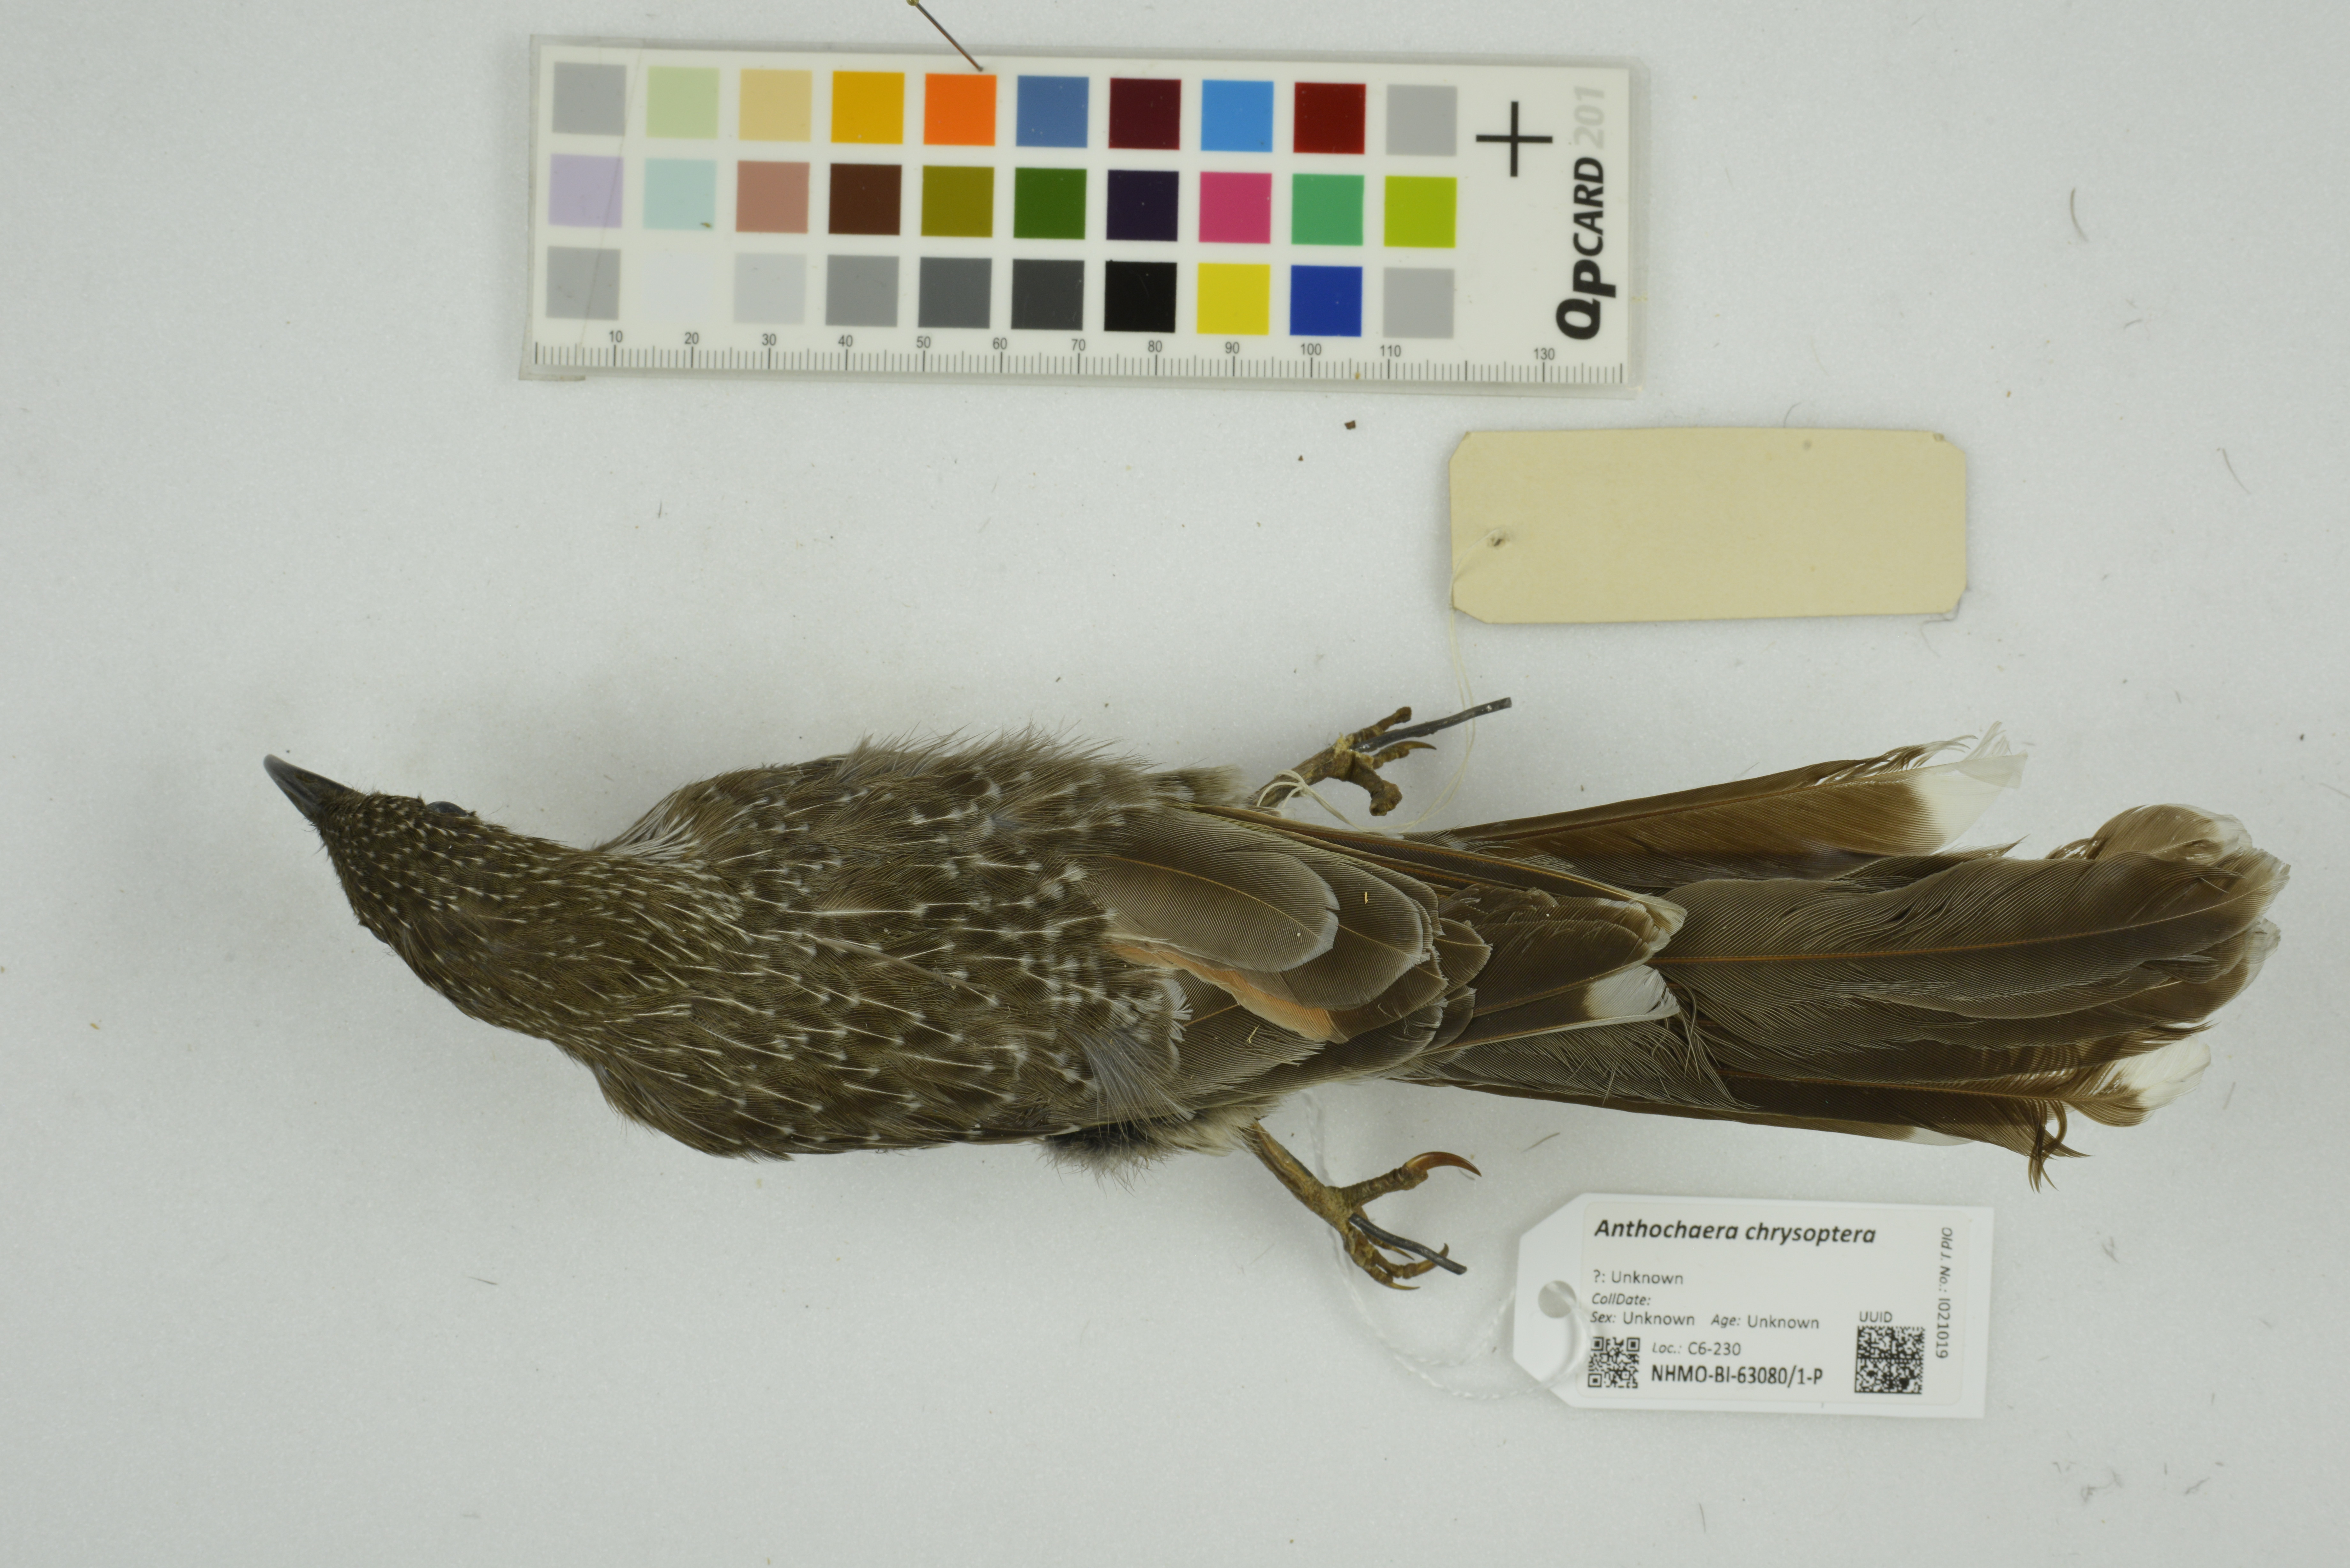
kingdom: Animalia
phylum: Chordata
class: Aves
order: Passeriformes
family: Meliphagidae
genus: Anthochaera
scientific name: Anthochaera chrysoptera
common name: Little wattlebird
